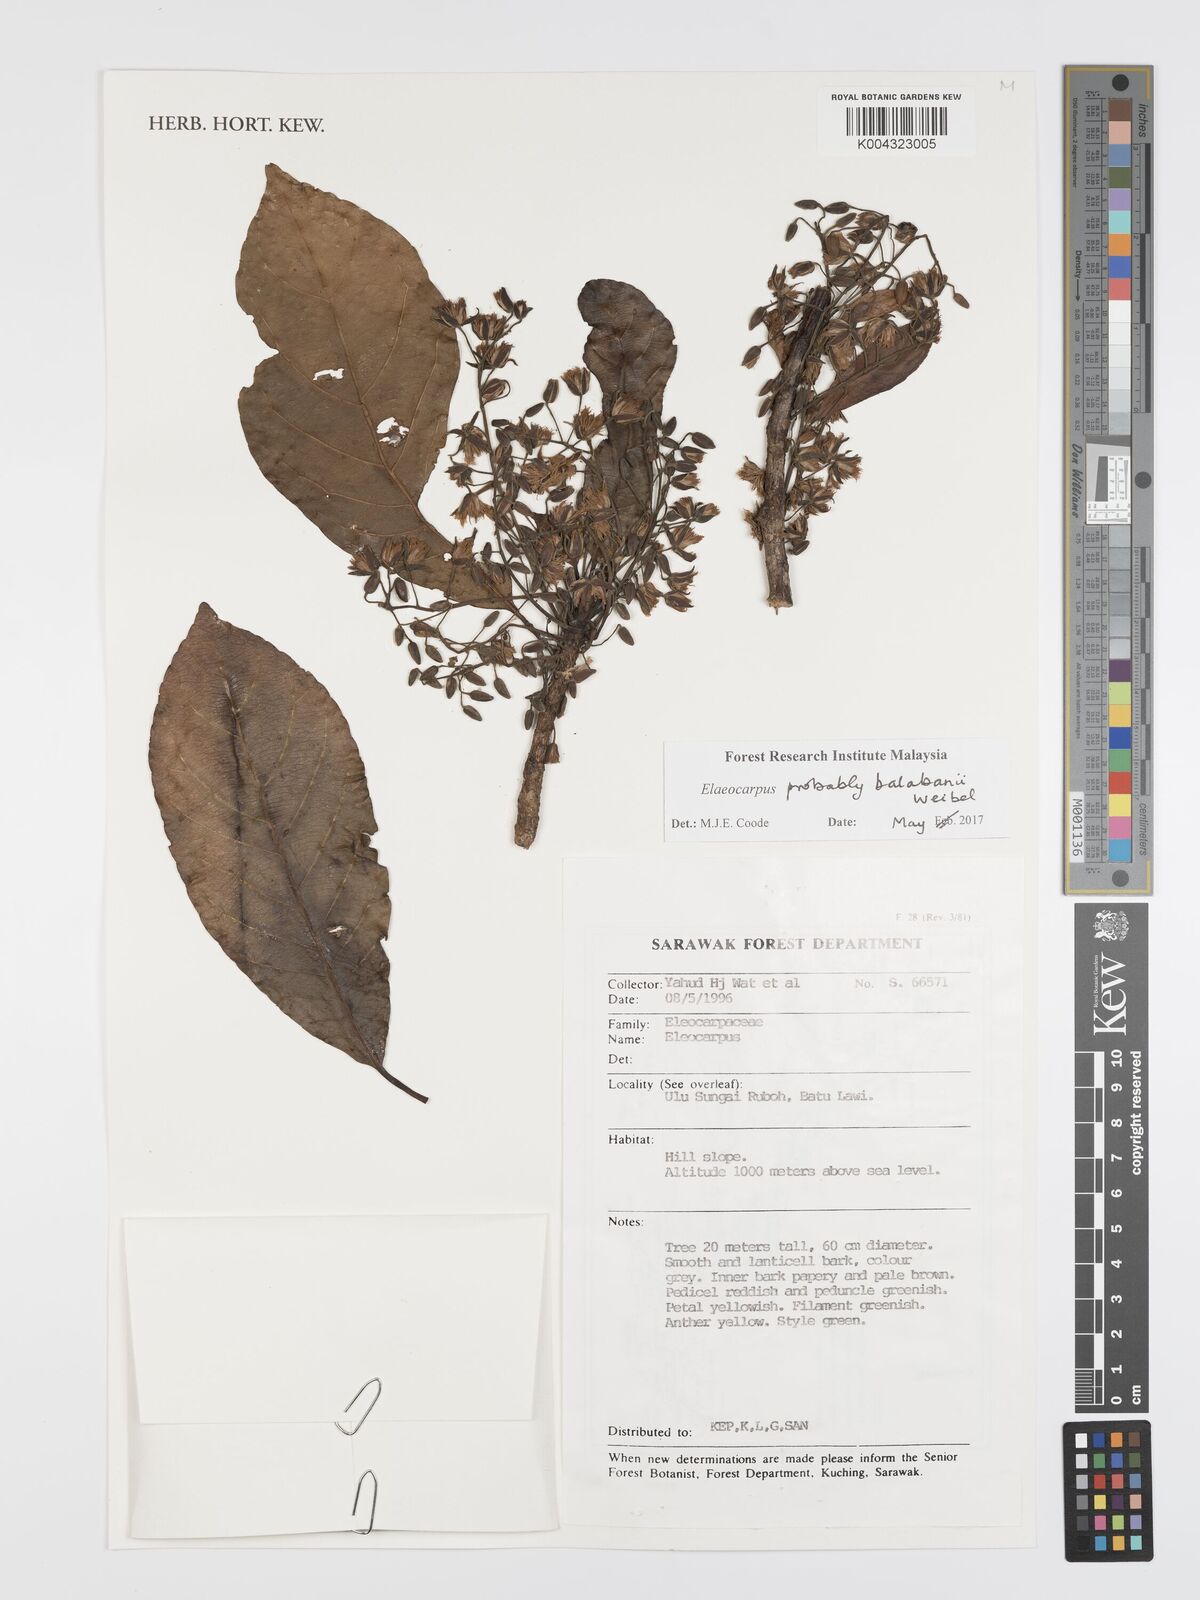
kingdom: Plantae
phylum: Tracheophyta
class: Magnoliopsida
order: Oxalidales
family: Elaeocarpaceae
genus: Elaeocarpus
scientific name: Elaeocarpus balabanii
